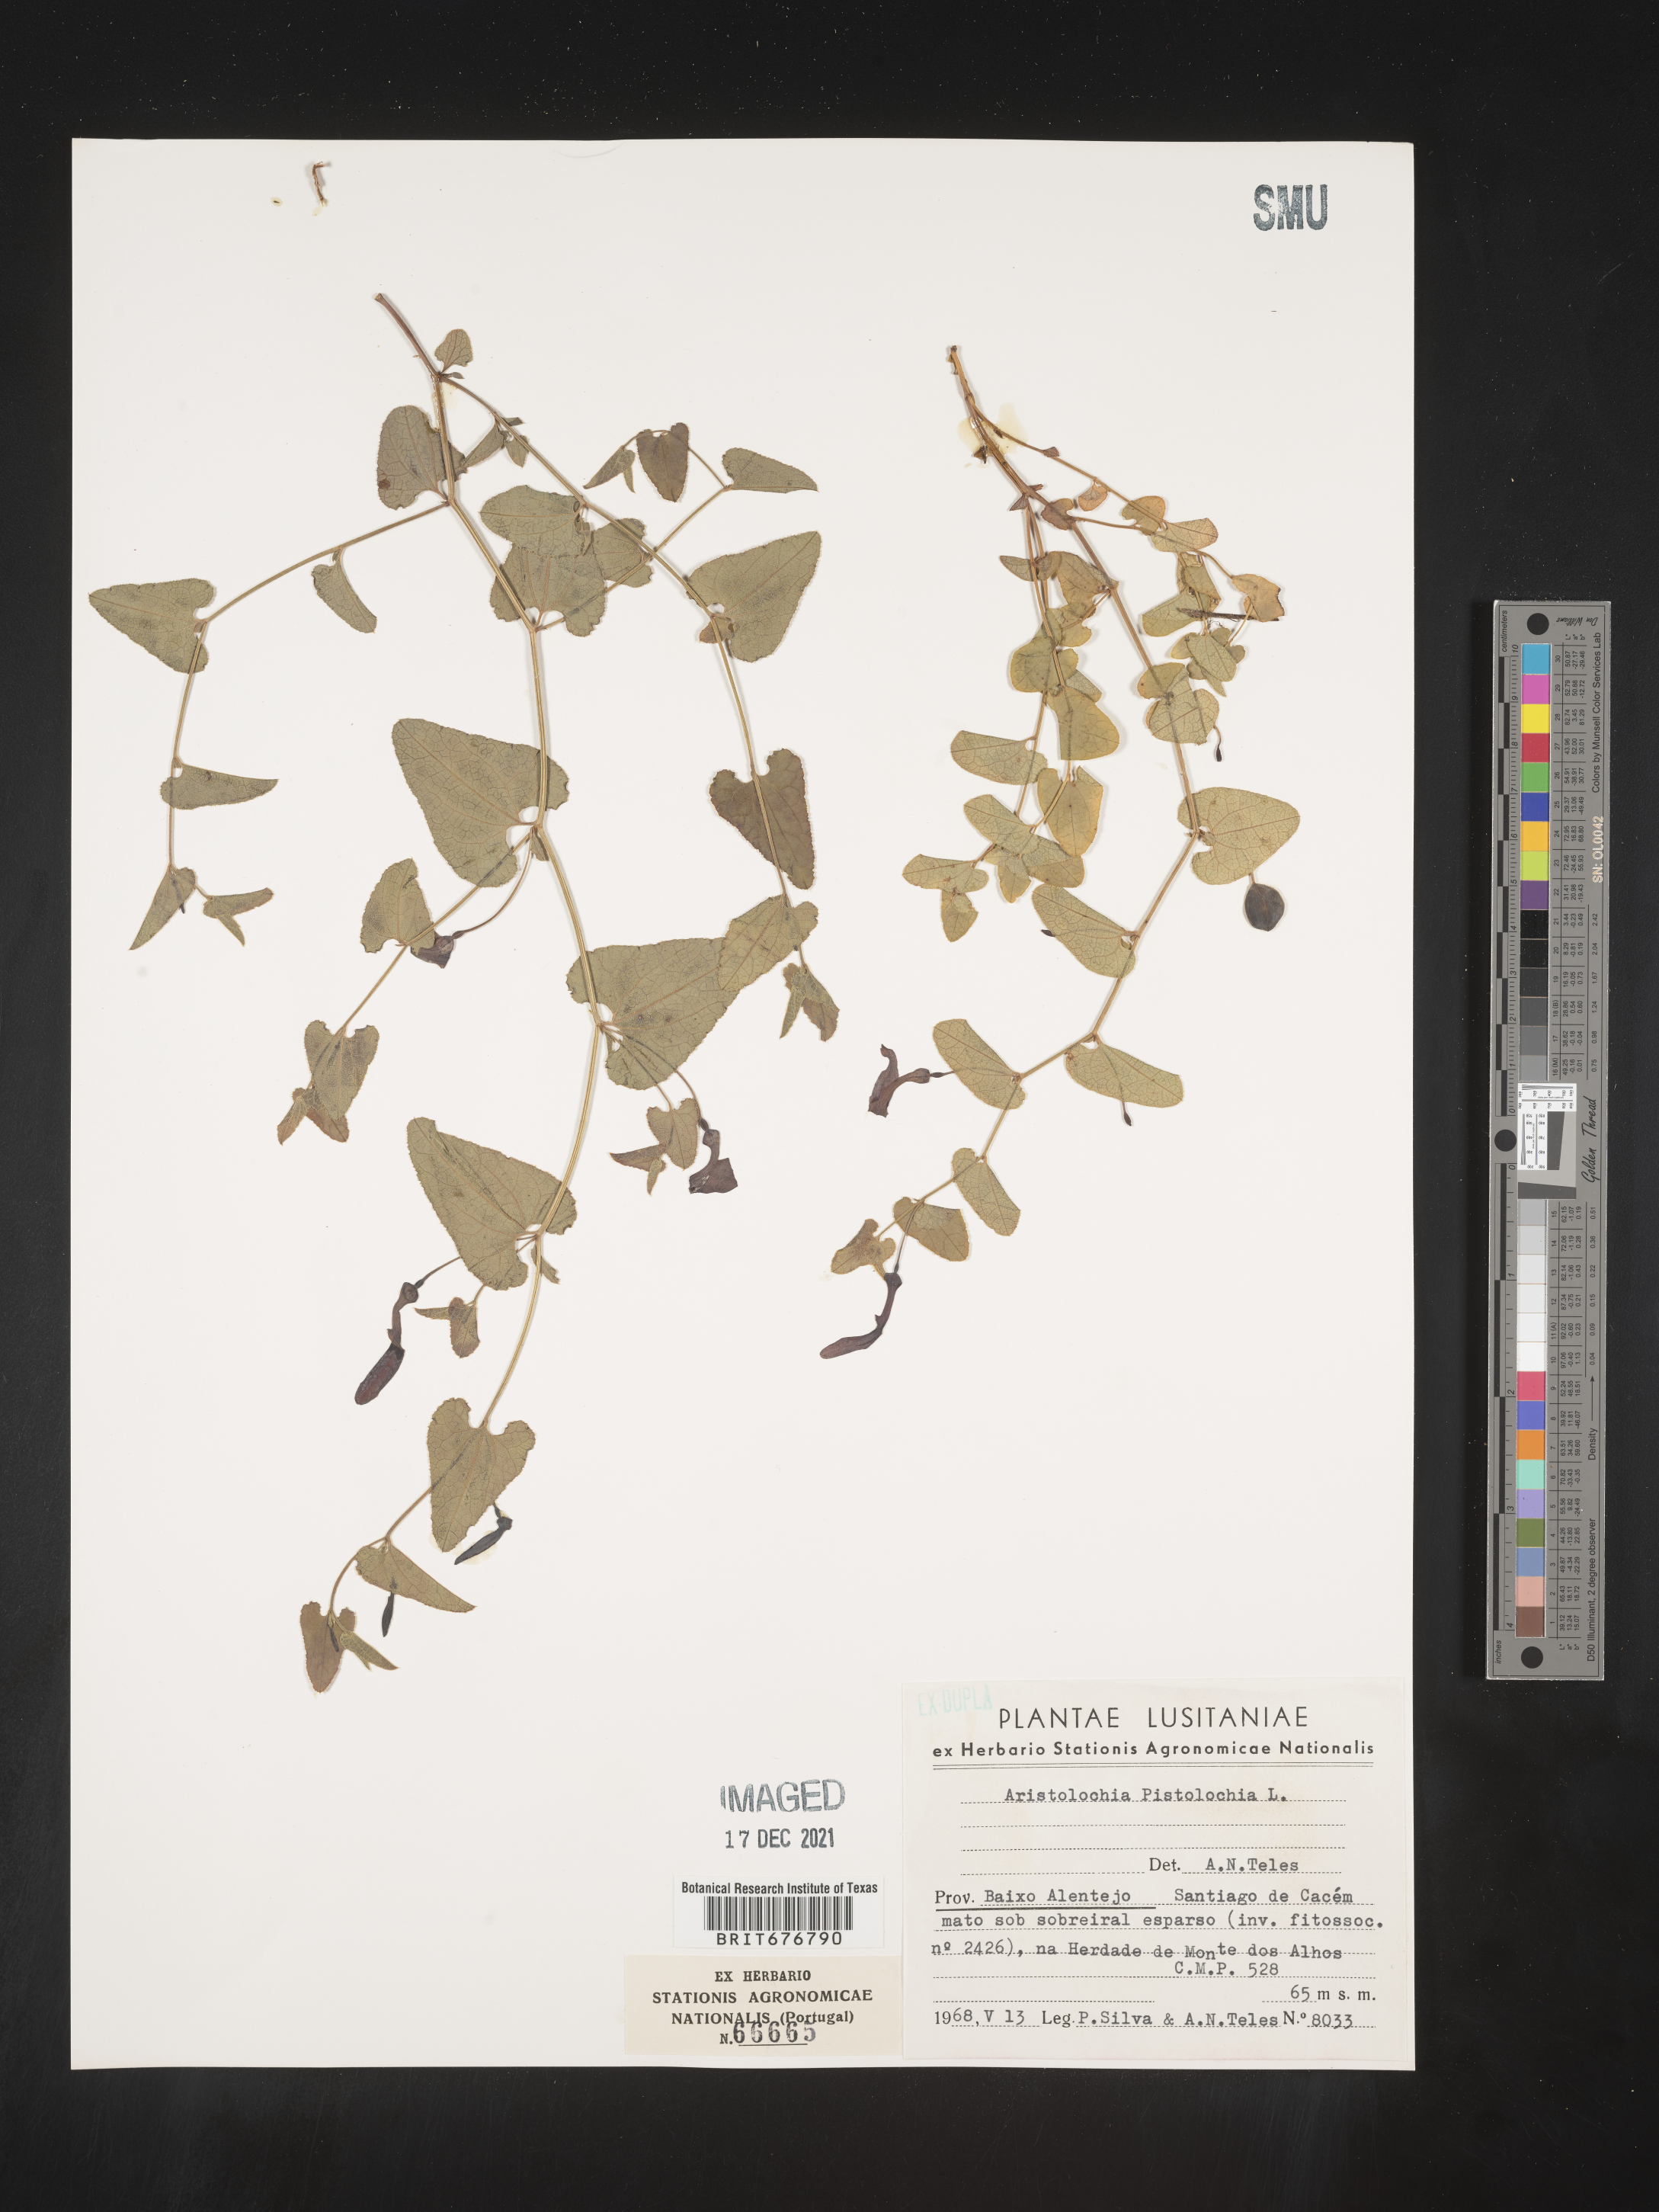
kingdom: Plantae
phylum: Tracheophyta
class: Magnoliopsida
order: Piperales
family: Aristolochiaceae
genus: Aristolochia
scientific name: Aristolochia
